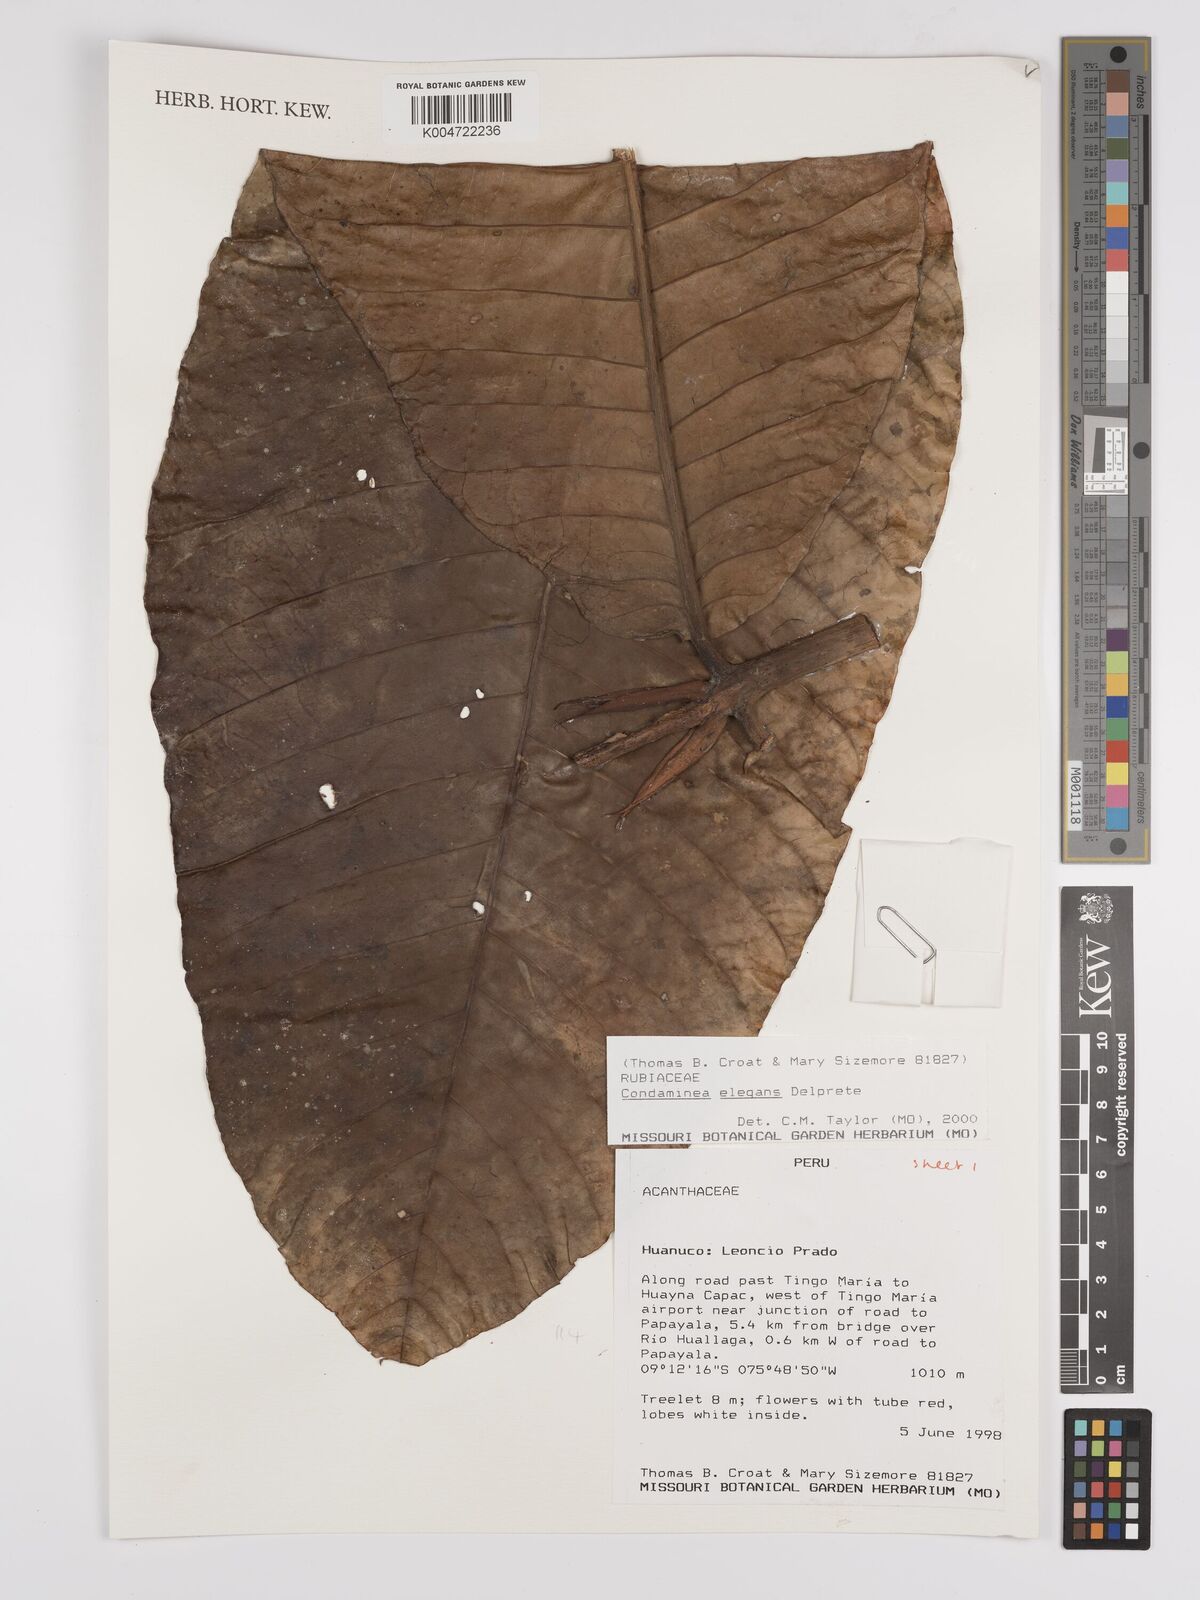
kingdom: Plantae
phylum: Tracheophyta
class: Magnoliopsida
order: Gentianales
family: Rubiaceae
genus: Condaminea
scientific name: Condaminea elegans
